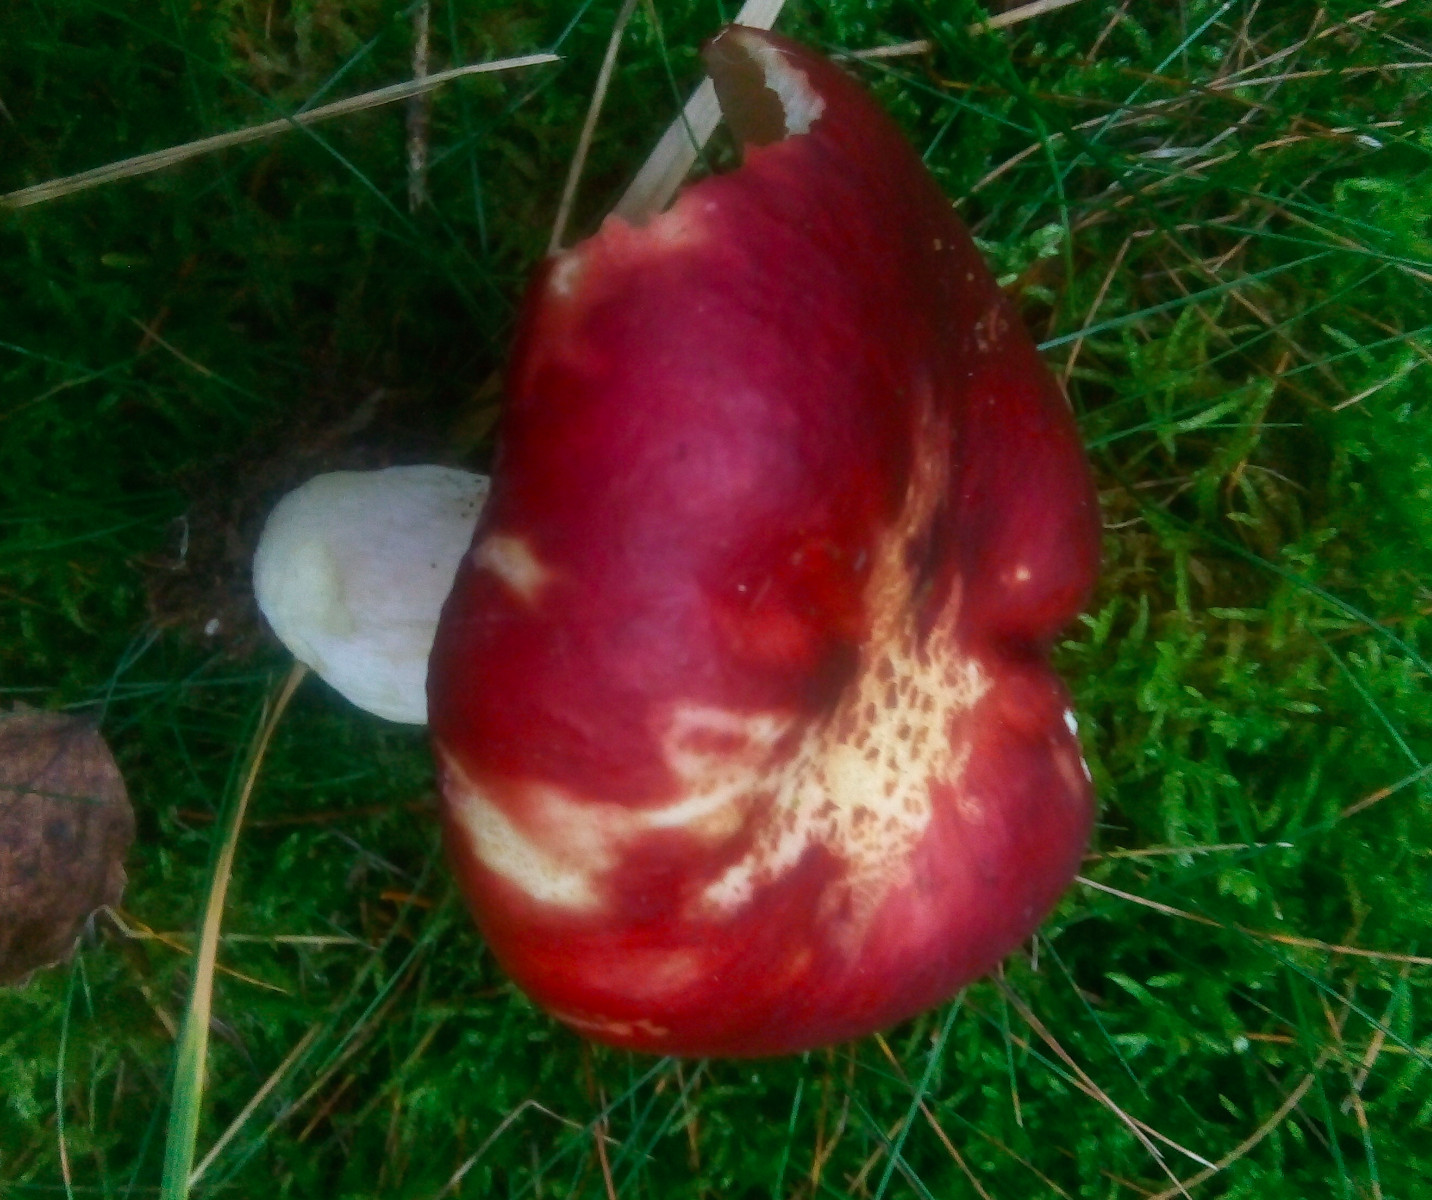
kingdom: Fungi
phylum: Basidiomycota
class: Agaricomycetes
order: Russulales
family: Russulaceae
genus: Russula
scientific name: Russula xerampelina
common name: hummer-skørhat
